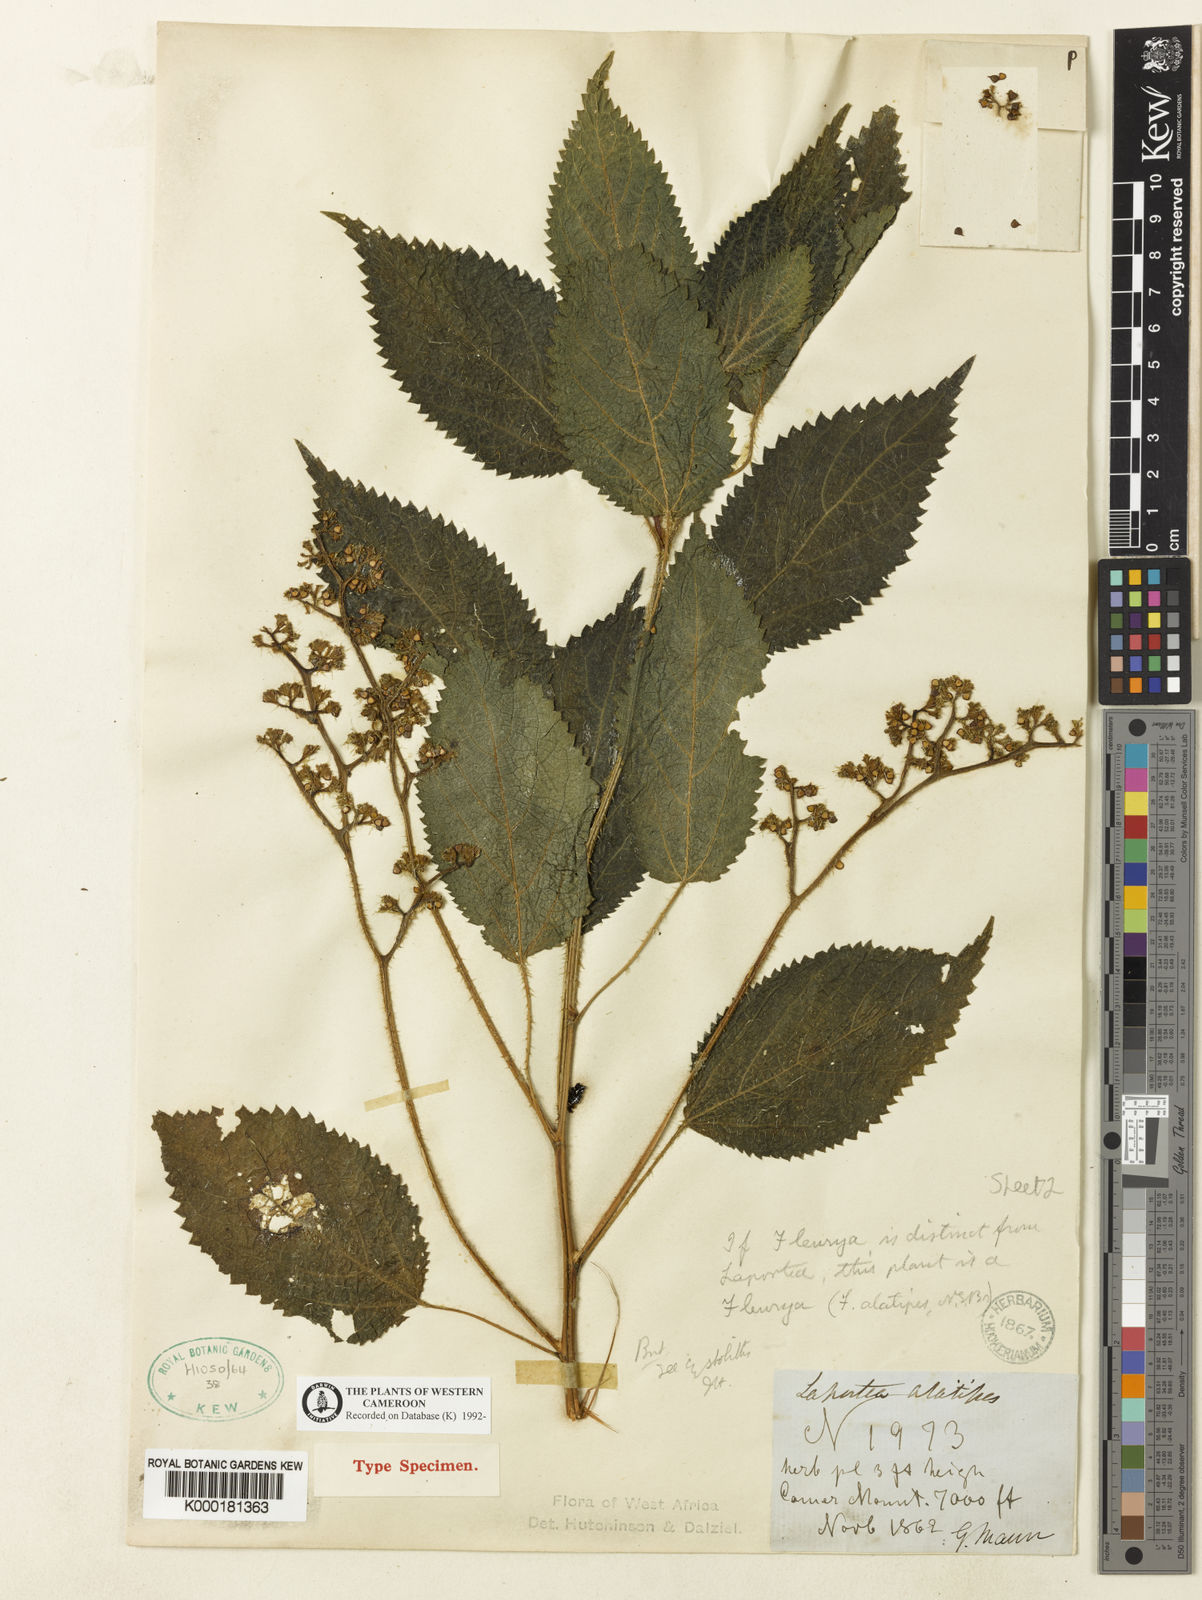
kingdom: Plantae
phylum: Tracheophyta
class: Magnoliopsida
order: Rosales
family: Urticaceae
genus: Laportea
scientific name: Laportea alatipes
